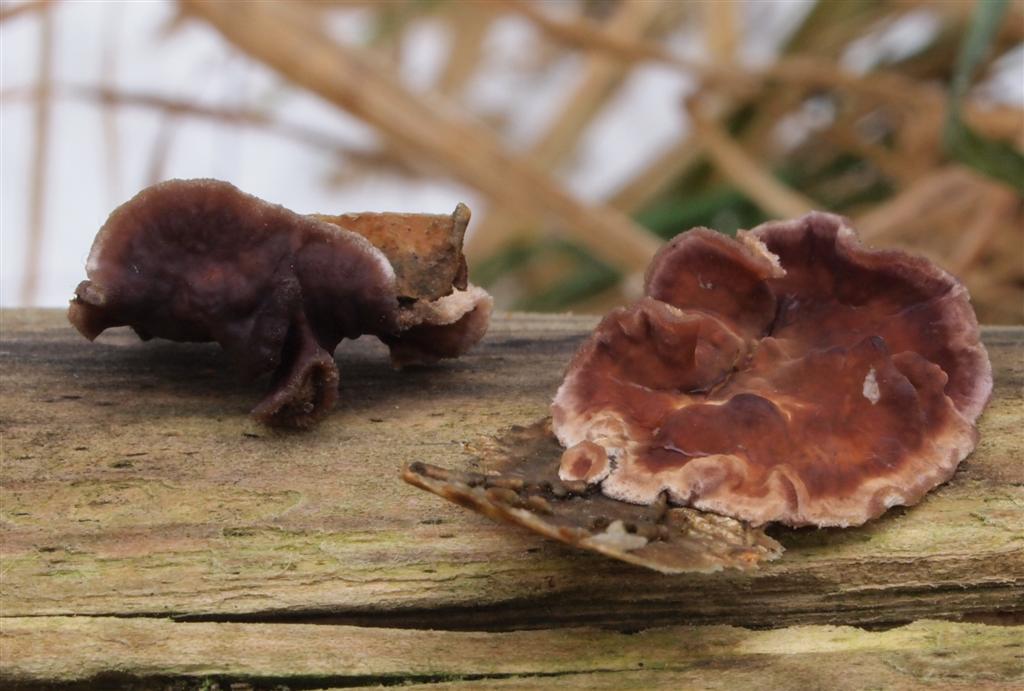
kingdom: Fungi
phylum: Basidiomycota
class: Agaricomycetes
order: Agaricales
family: Cyphellaceae
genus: Chondrostereum
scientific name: Chondrostereum purpureum
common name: purpurlædersvamp
